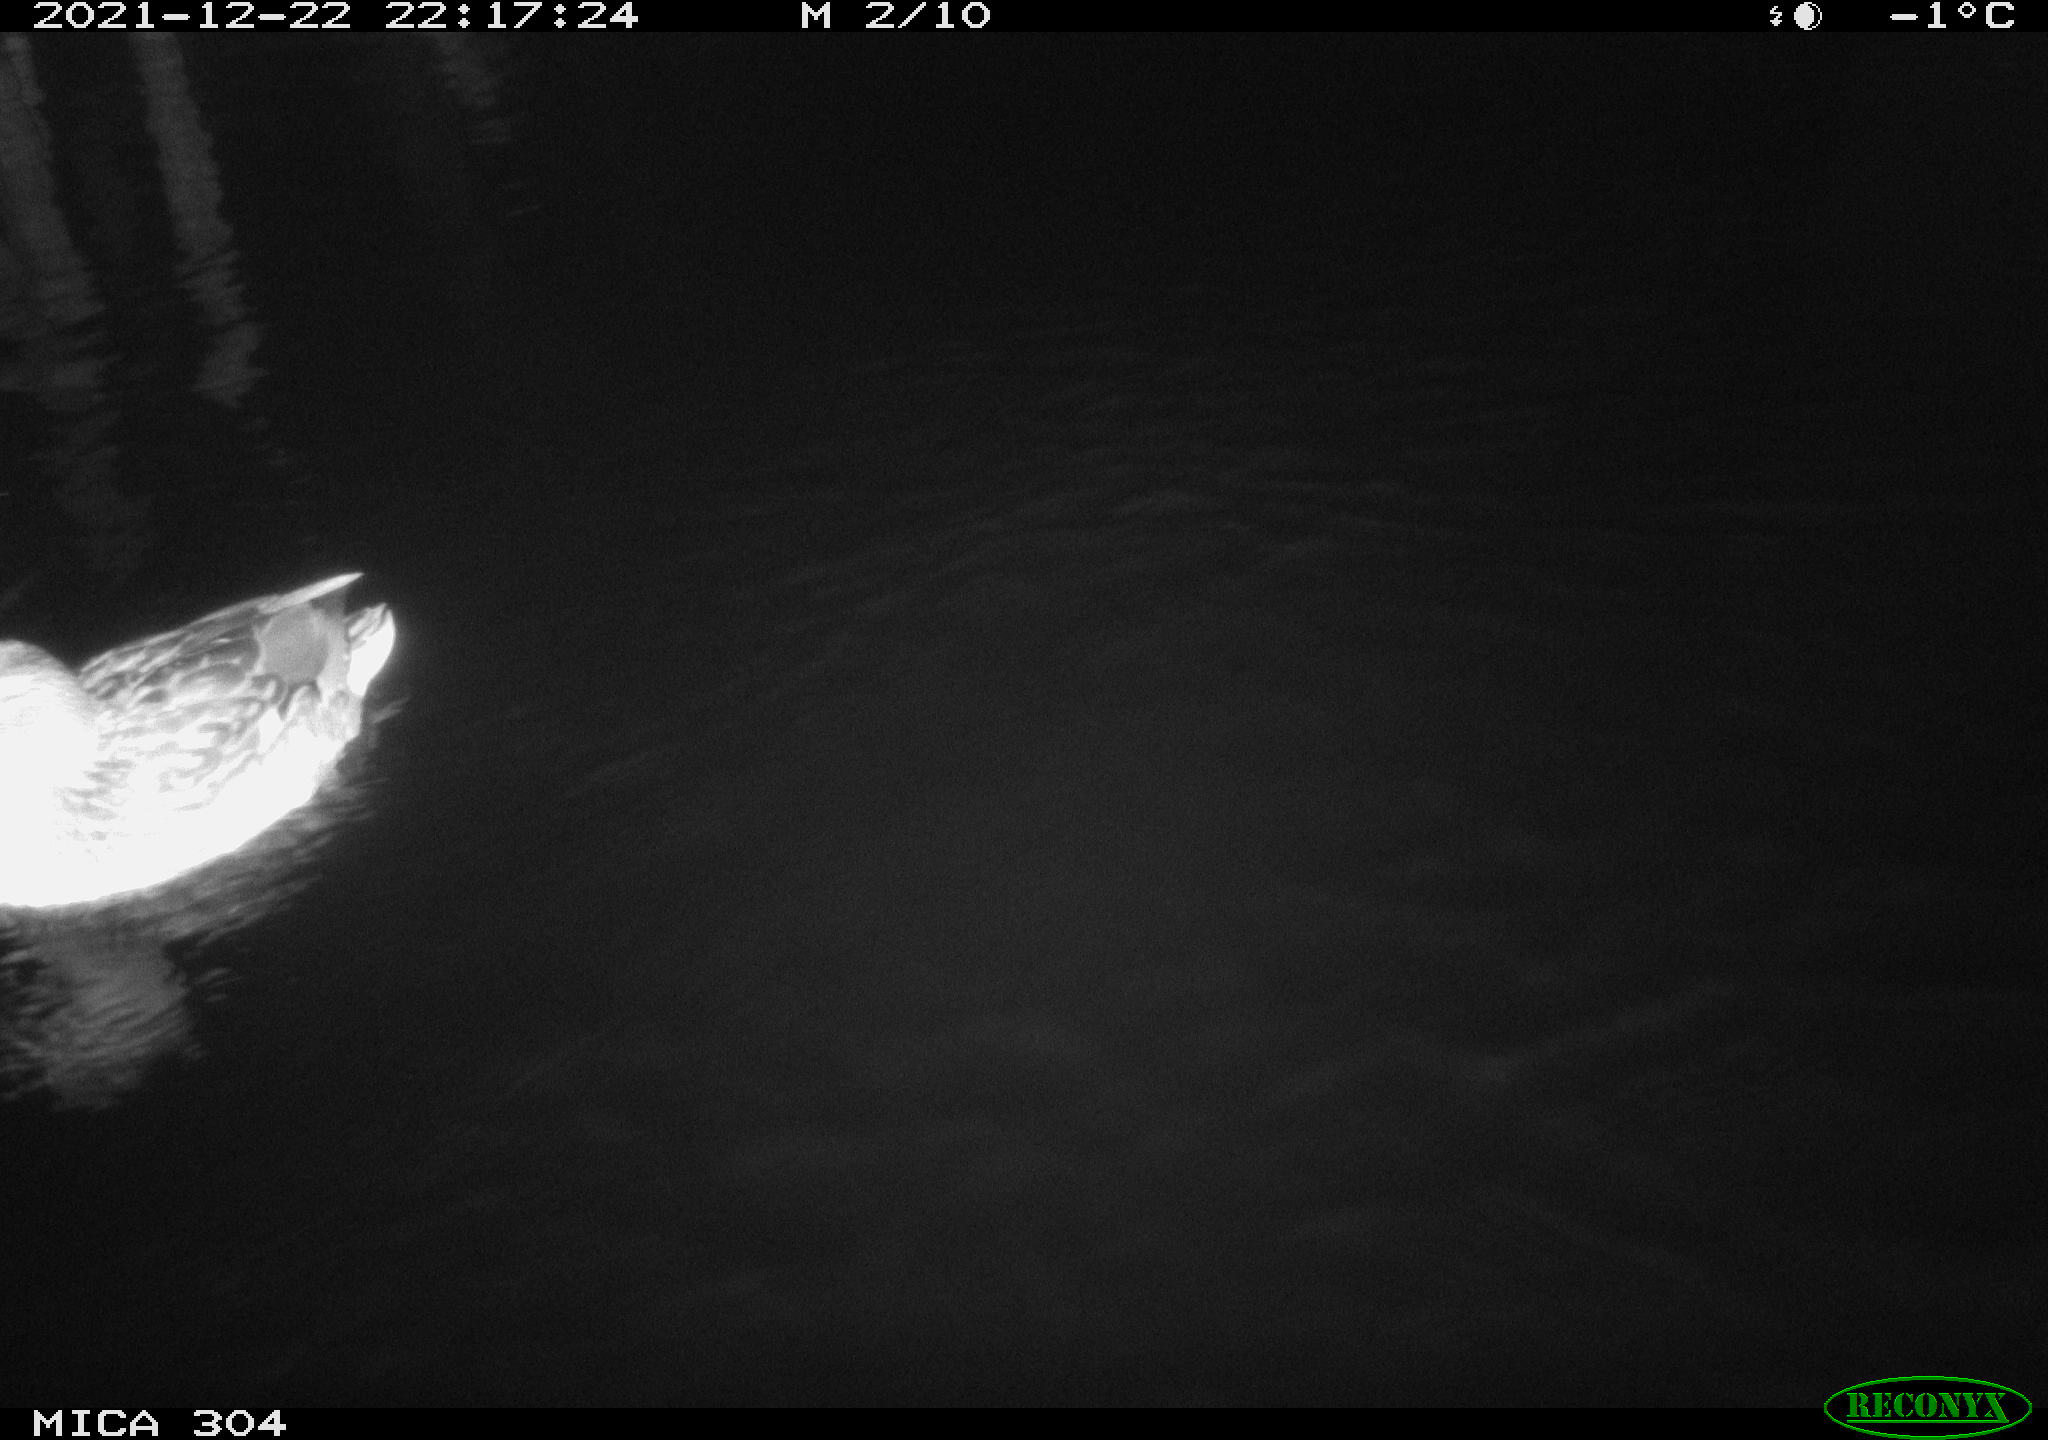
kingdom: Animalia
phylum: Chordata
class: Aves
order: Anseriformes
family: Anatidae
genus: Anas
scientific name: Anas
